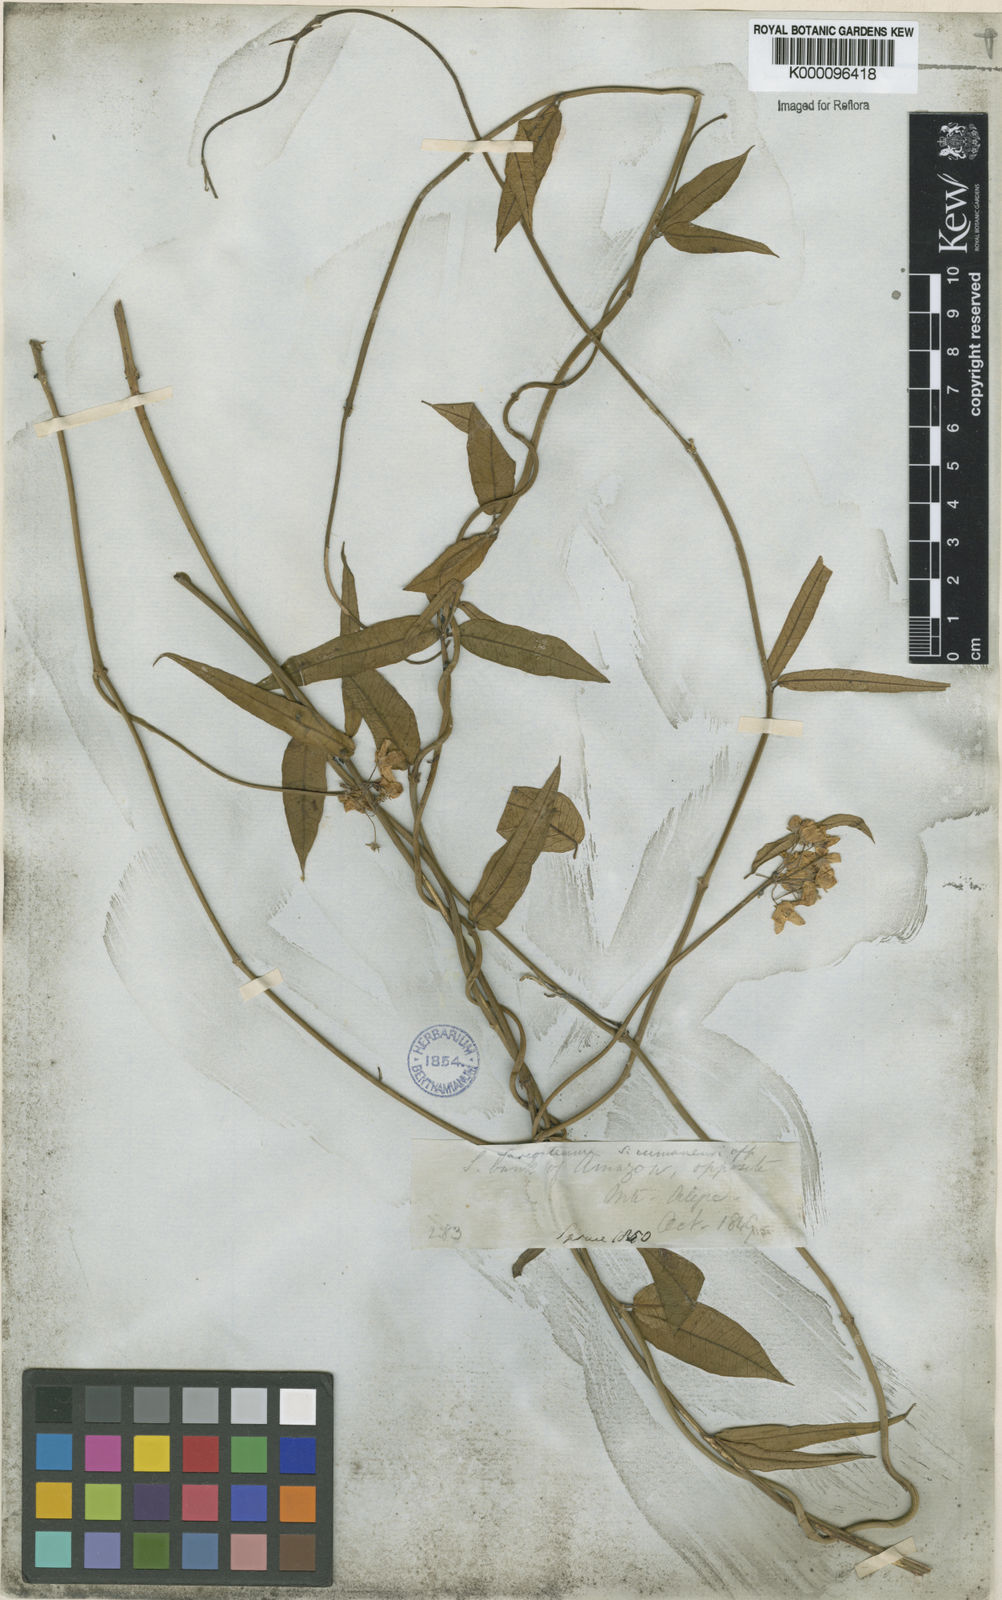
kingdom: Plantae
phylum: Tracheophyta
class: Magnoliopsida
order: Gentianales
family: Apocynaceae
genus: Funastrum
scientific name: Funastrum clausum
